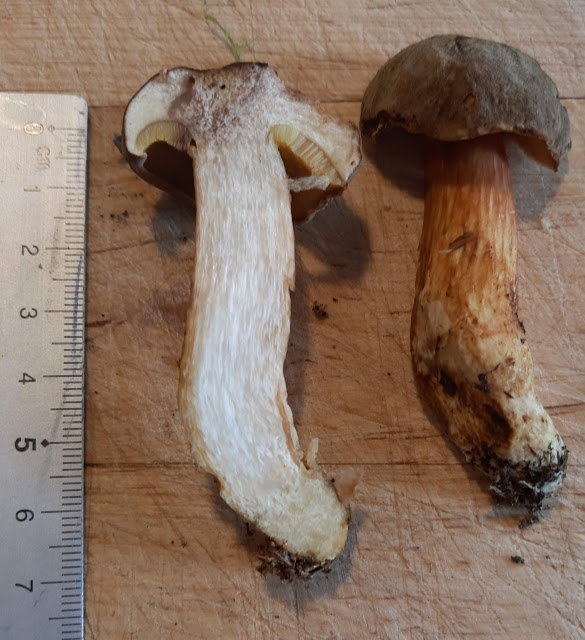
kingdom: Fungi
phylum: Basidiomycota
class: Agaricomycetes
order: Boletales
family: Boletaceae
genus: Xerocomus
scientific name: Xerocomus ferrugineus
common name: vaskeskinds-rørhat
